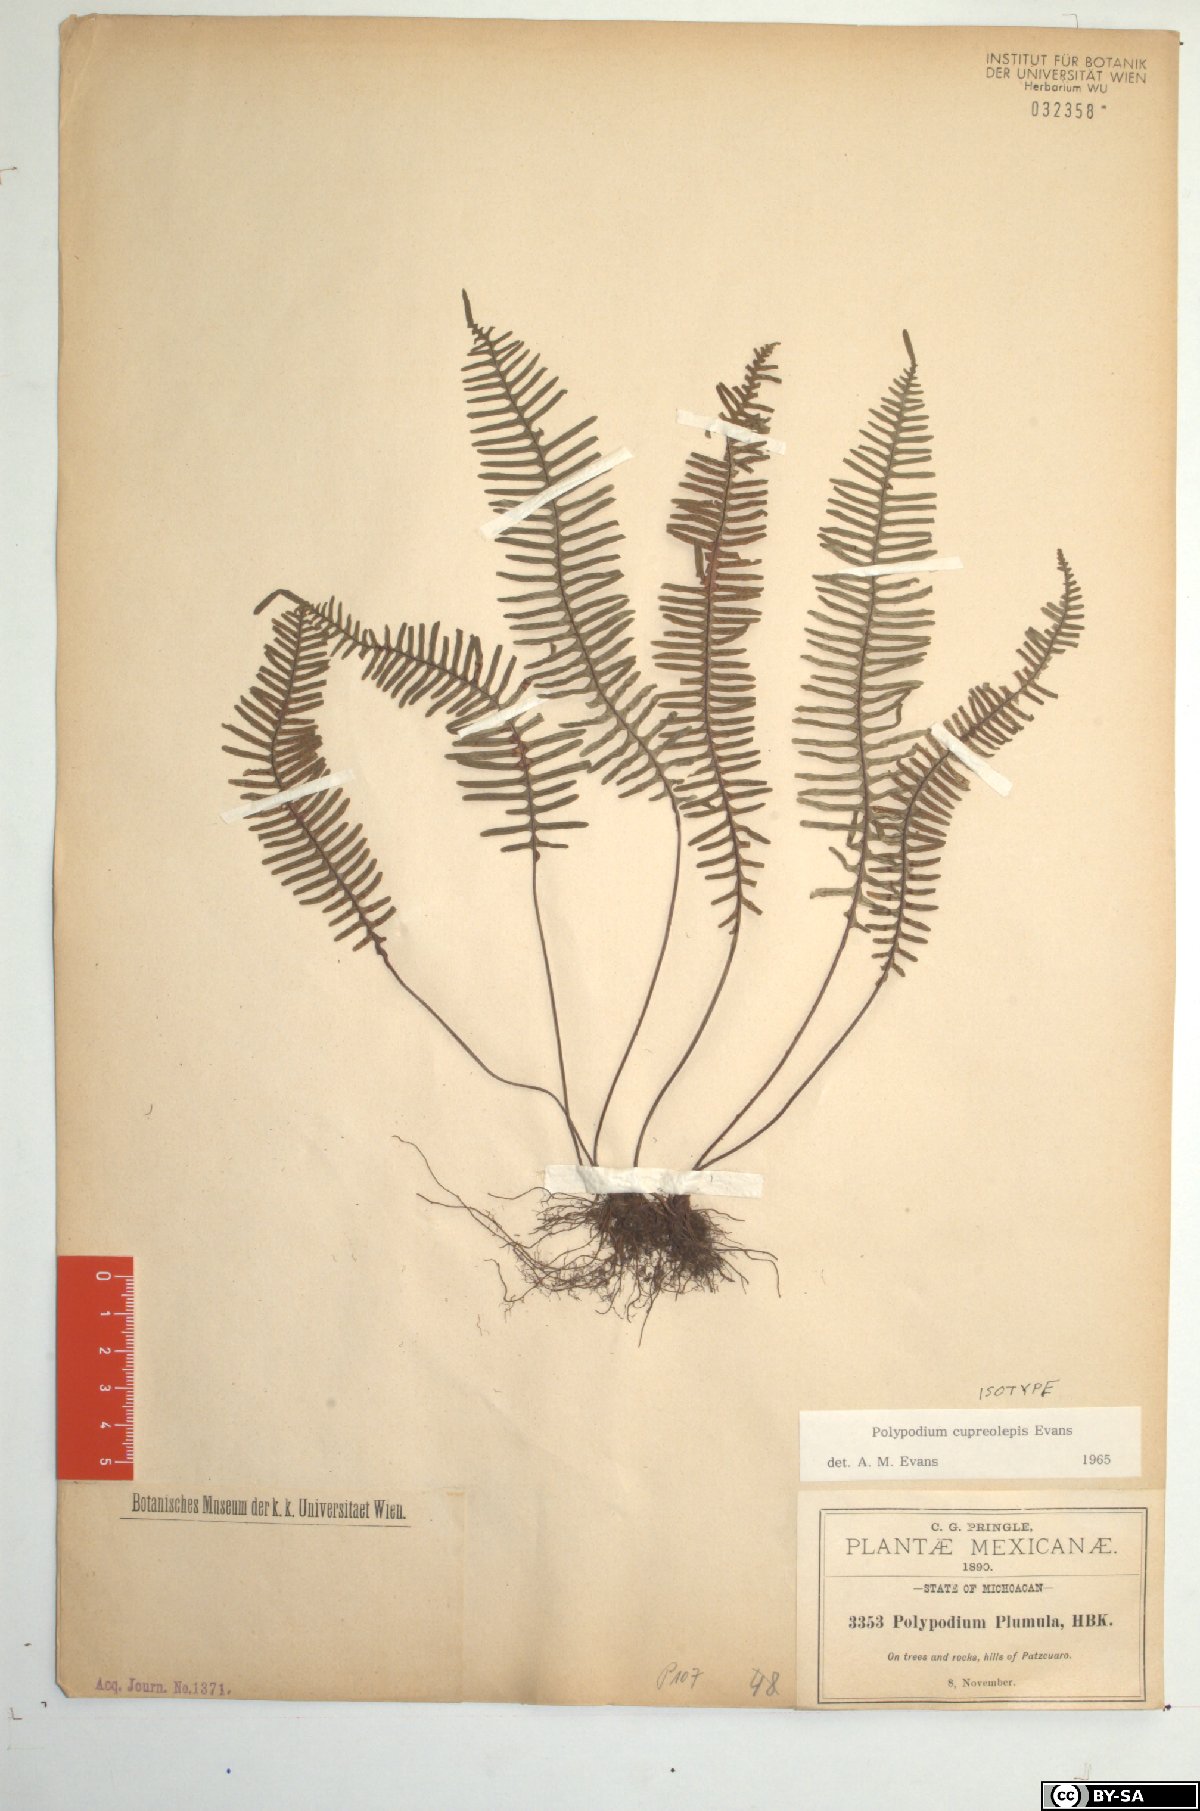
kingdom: Plantae
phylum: Tracheophyta
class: Polypodiopsida
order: Polypodiales
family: Polypodiaceae
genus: Pecluma
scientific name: Pecluma alfredii
